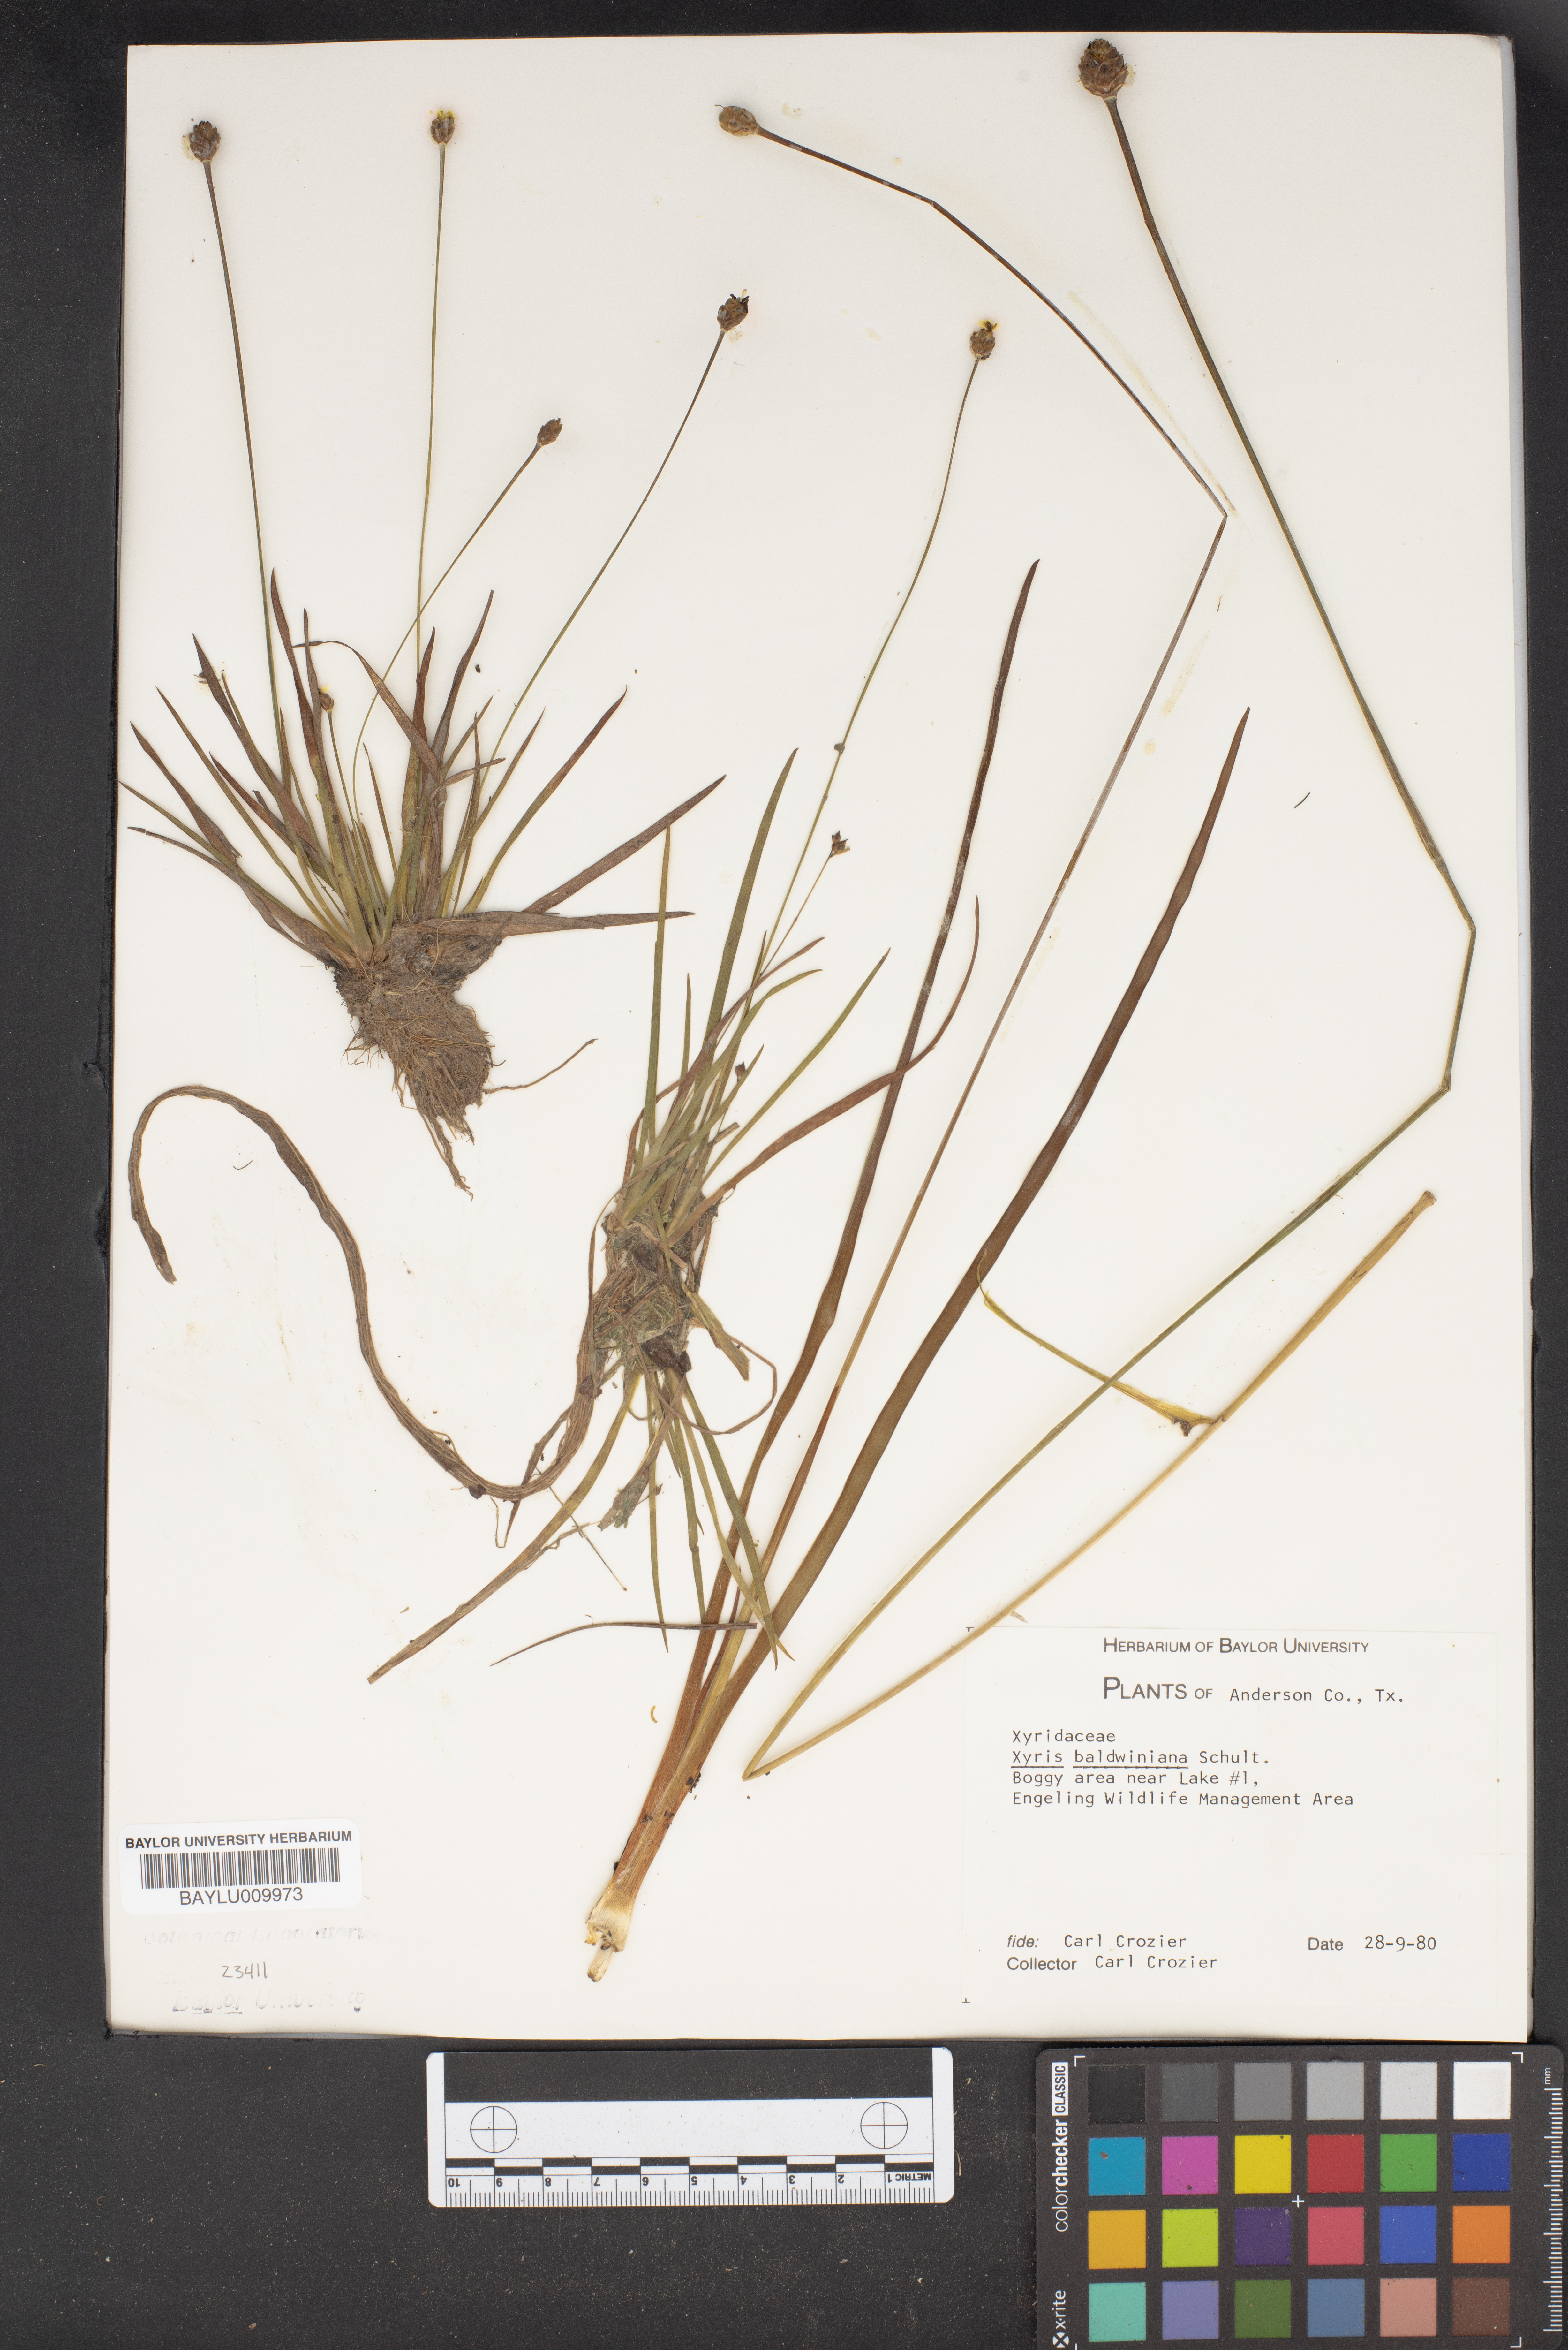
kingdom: Plantae
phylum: Tracheophyta
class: Liliopsida
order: Poales
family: Xyridaceae
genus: Xyris
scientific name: Xyris baldwiniana
